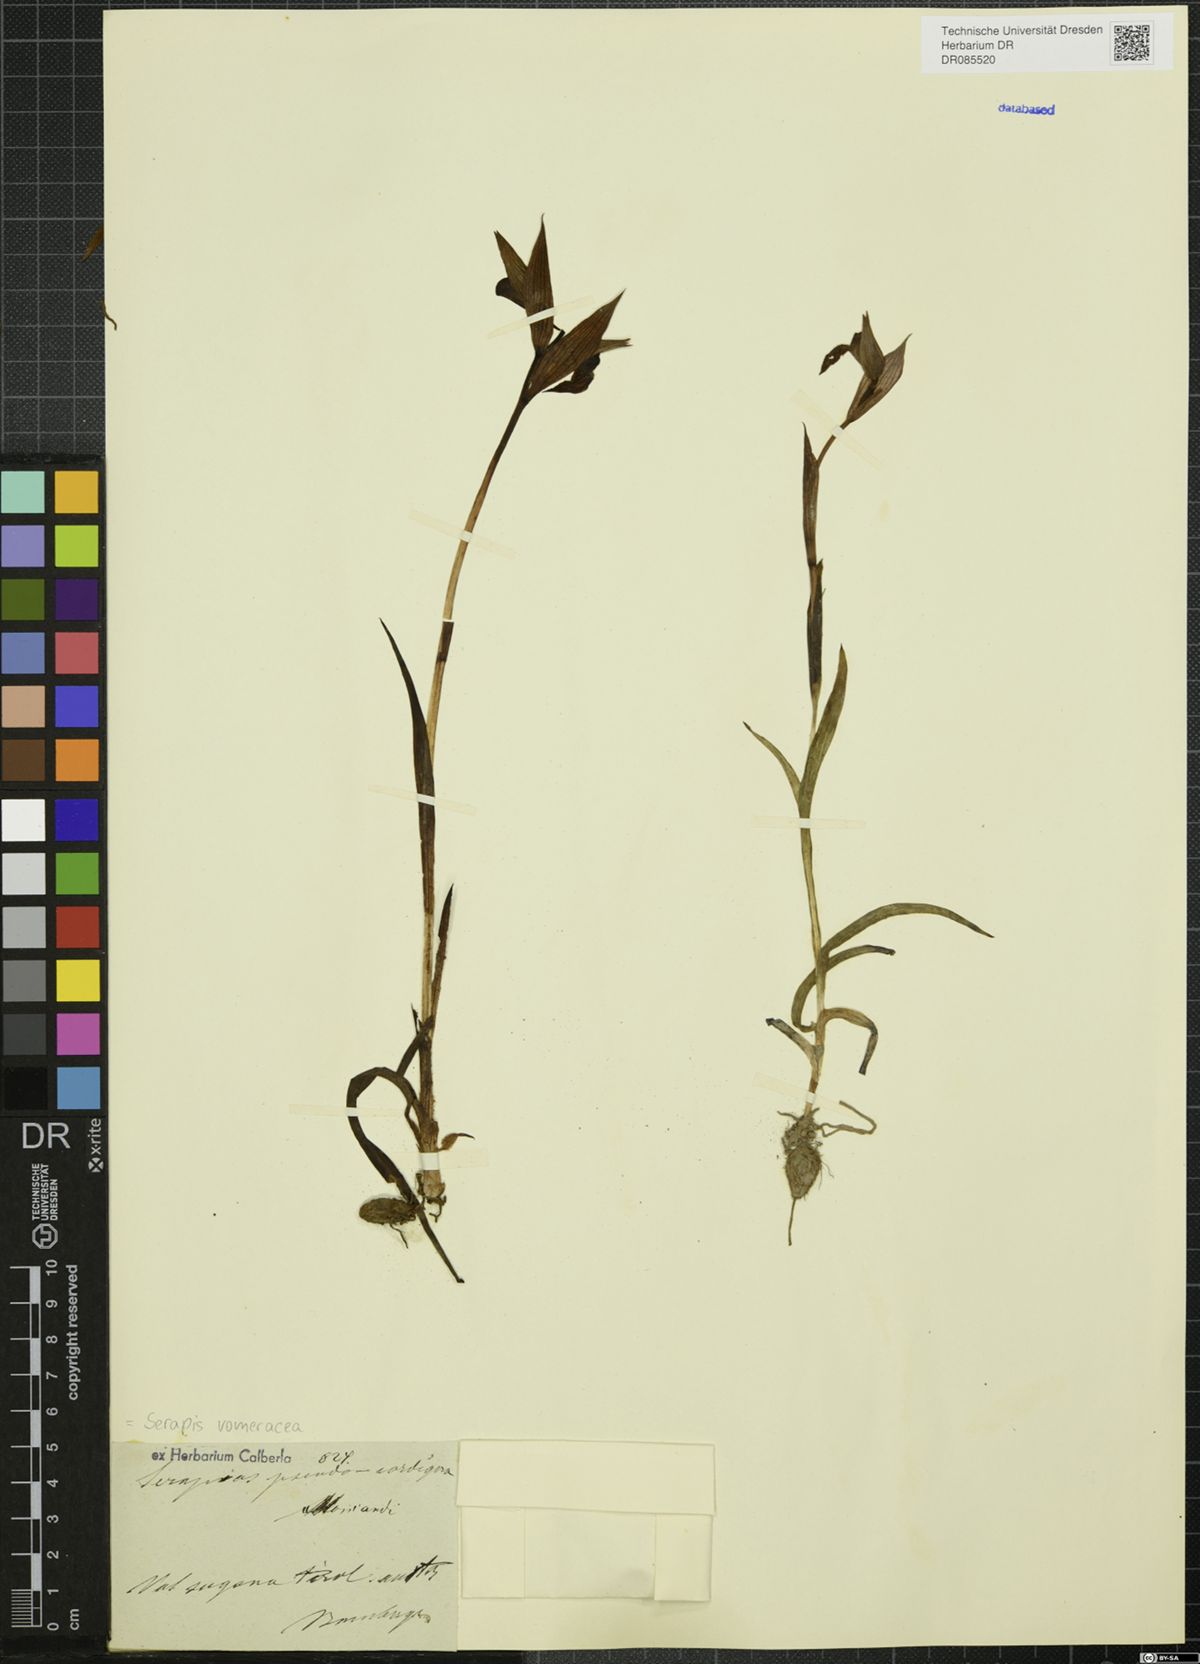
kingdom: Plantae
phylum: Tracheophyta
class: Liliopsida
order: Asparagales
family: Orchidaceae
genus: Serapias
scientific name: Serapias vomeracea
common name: Long-lipped tongue-orchid
